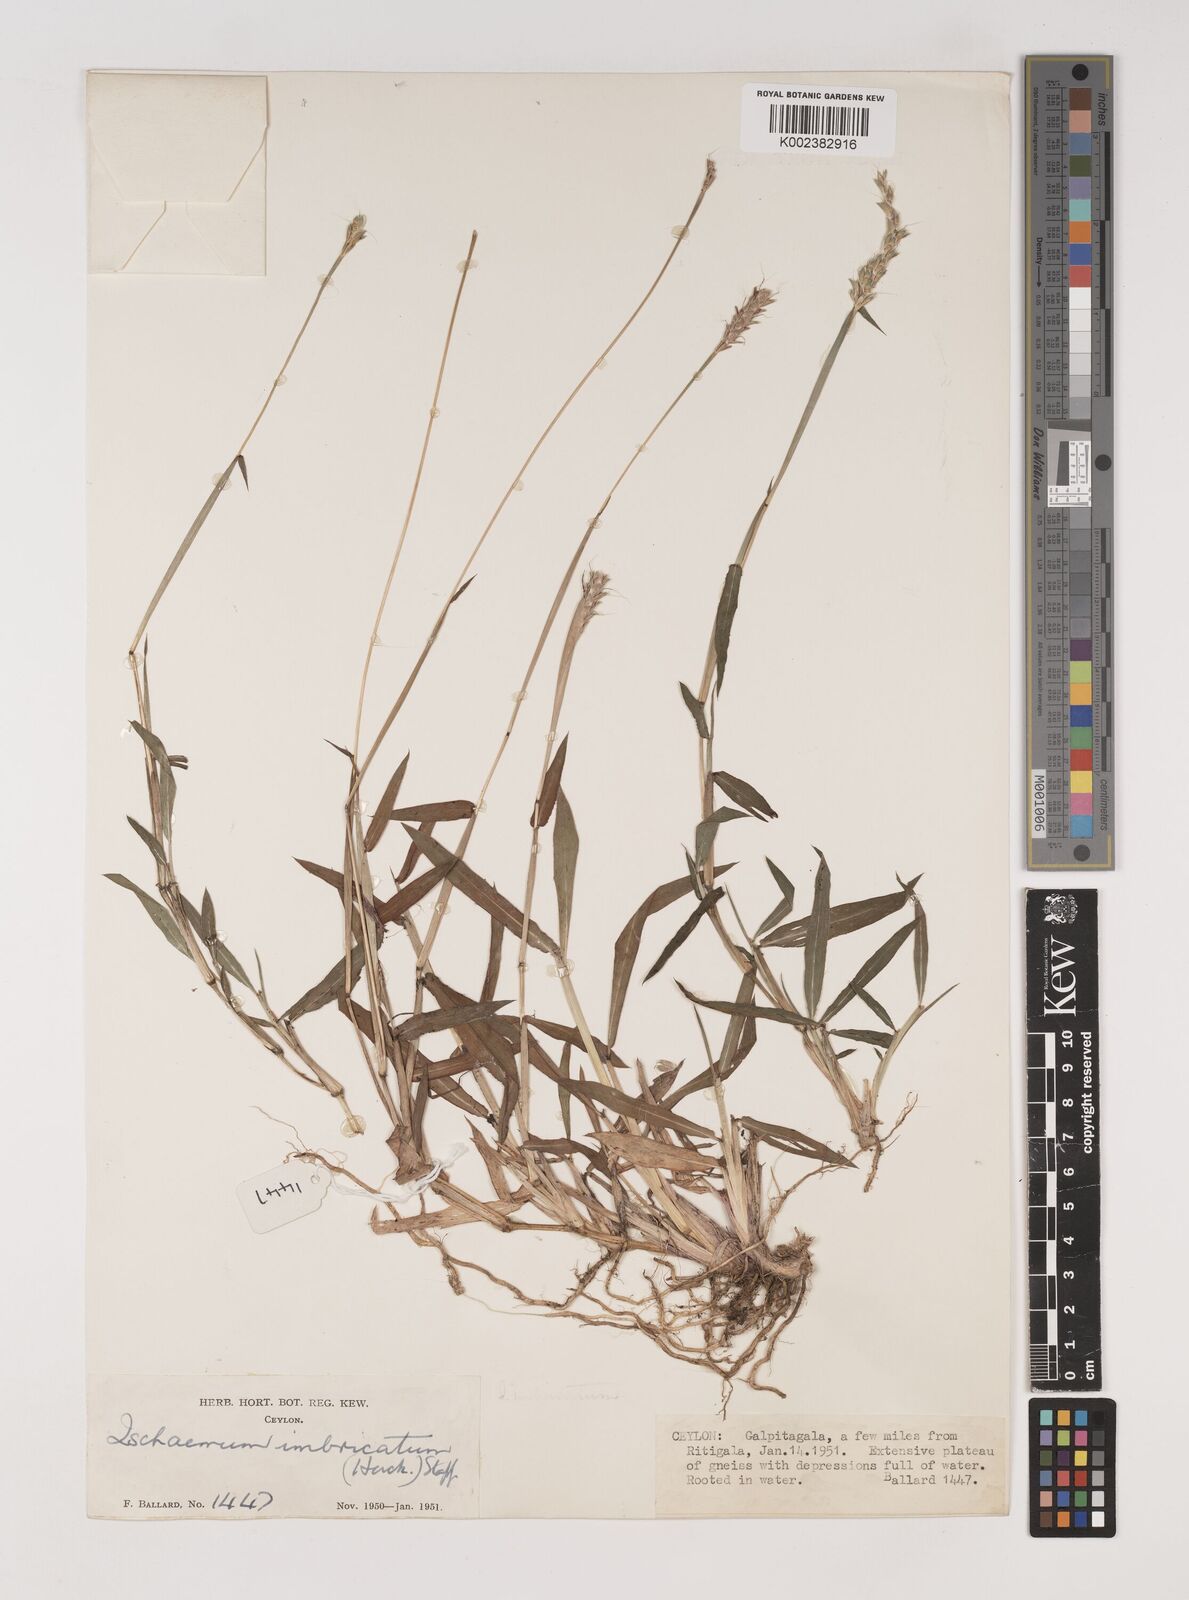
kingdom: Plantae
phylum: Tracheophyta
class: Liliopsida
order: Poales
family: Poaceae
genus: Ischaemum
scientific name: Ischaemum
